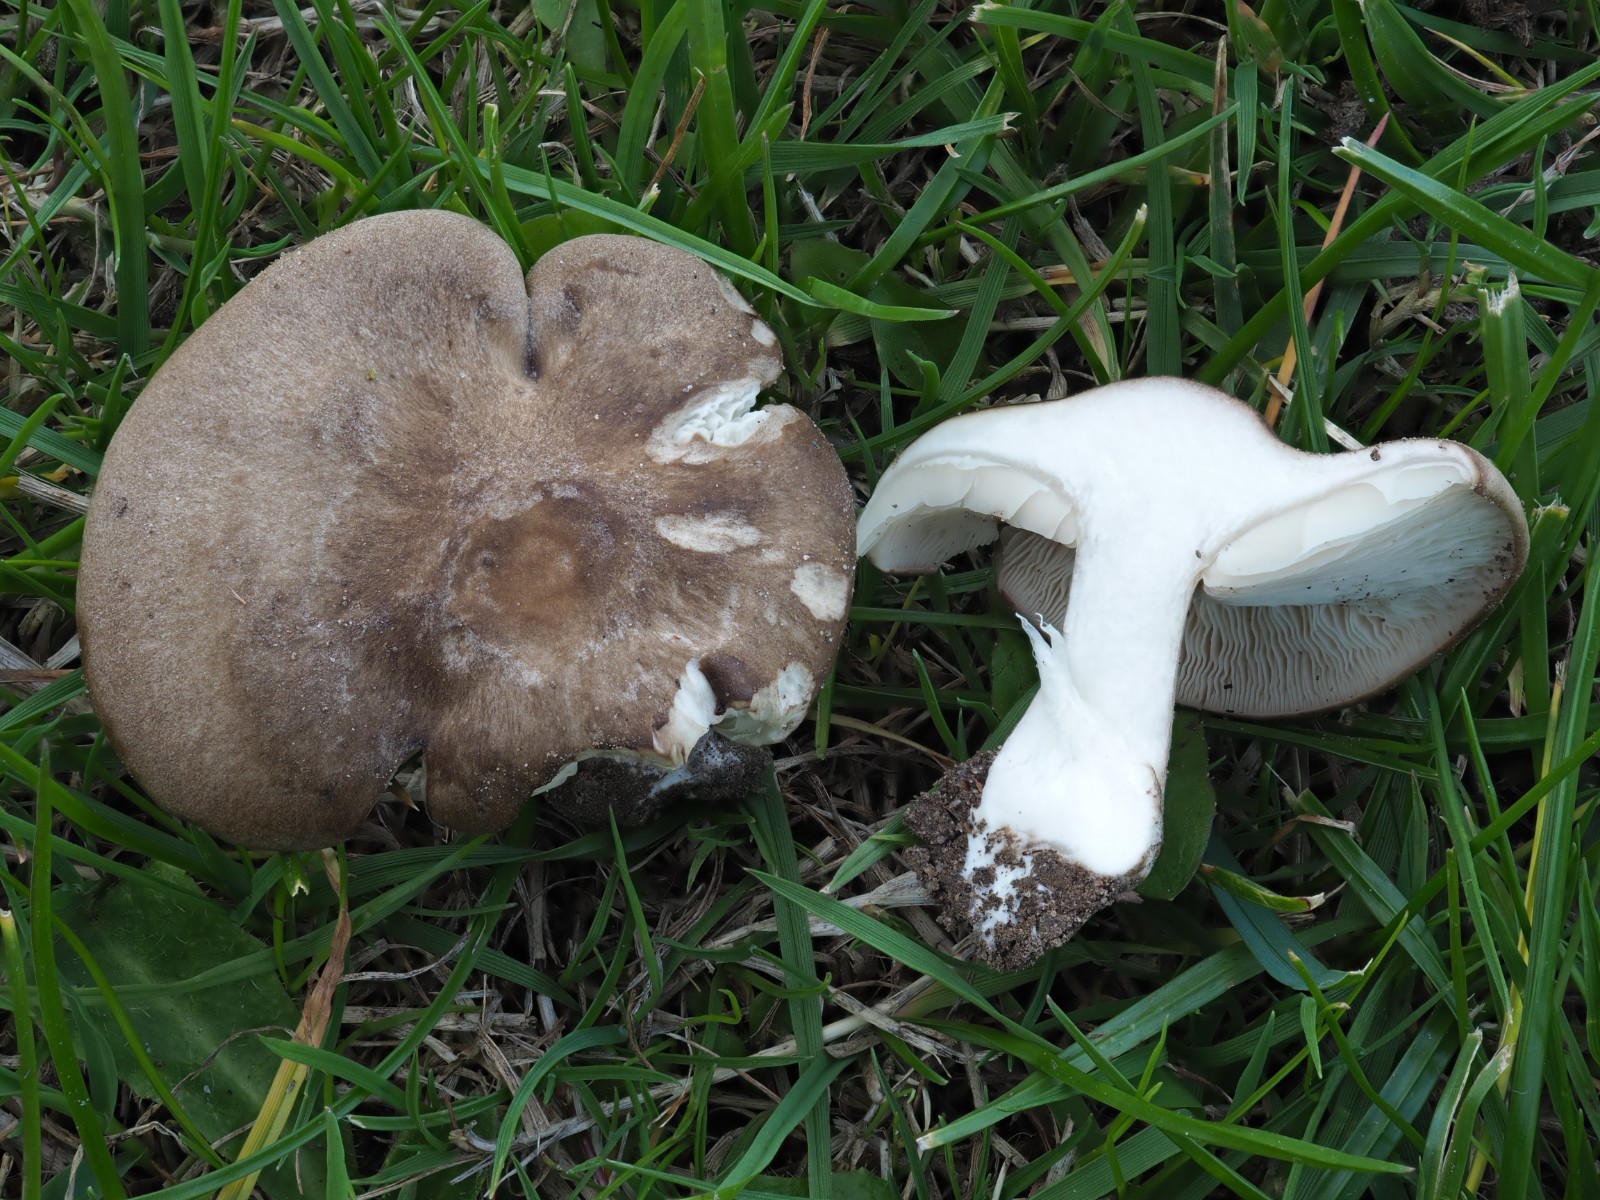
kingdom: Fungi
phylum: Basidiomycota
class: Agaricomycetes
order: Agaricales
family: Tricholomataceae
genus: Melanoleuca
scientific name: Melanoleuca grammopodia
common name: stribestokket munkehat
